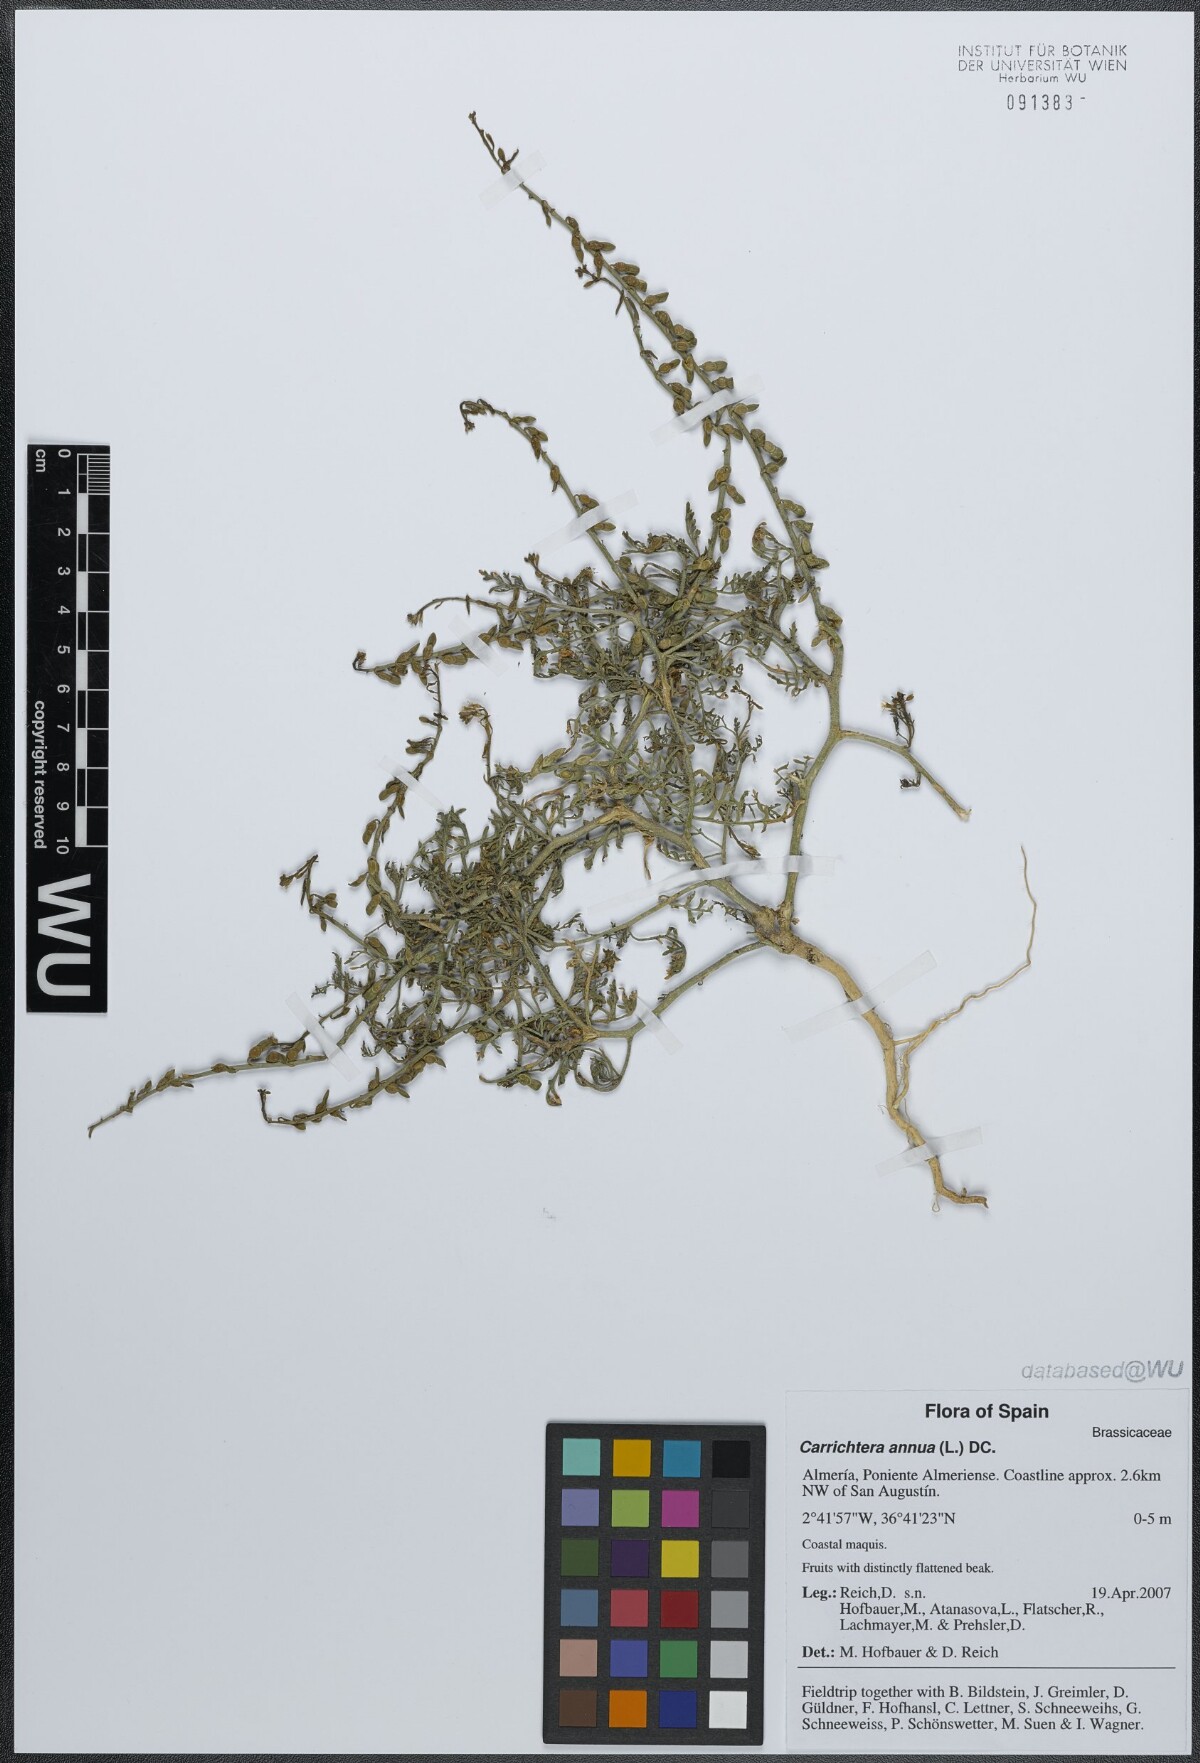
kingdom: Plantae
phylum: Tracheophyta
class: Magnoliopsida
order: Brassicales
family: Brassicaceae
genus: Carrichtera
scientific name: Carrichtera annua
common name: Cress rocket
